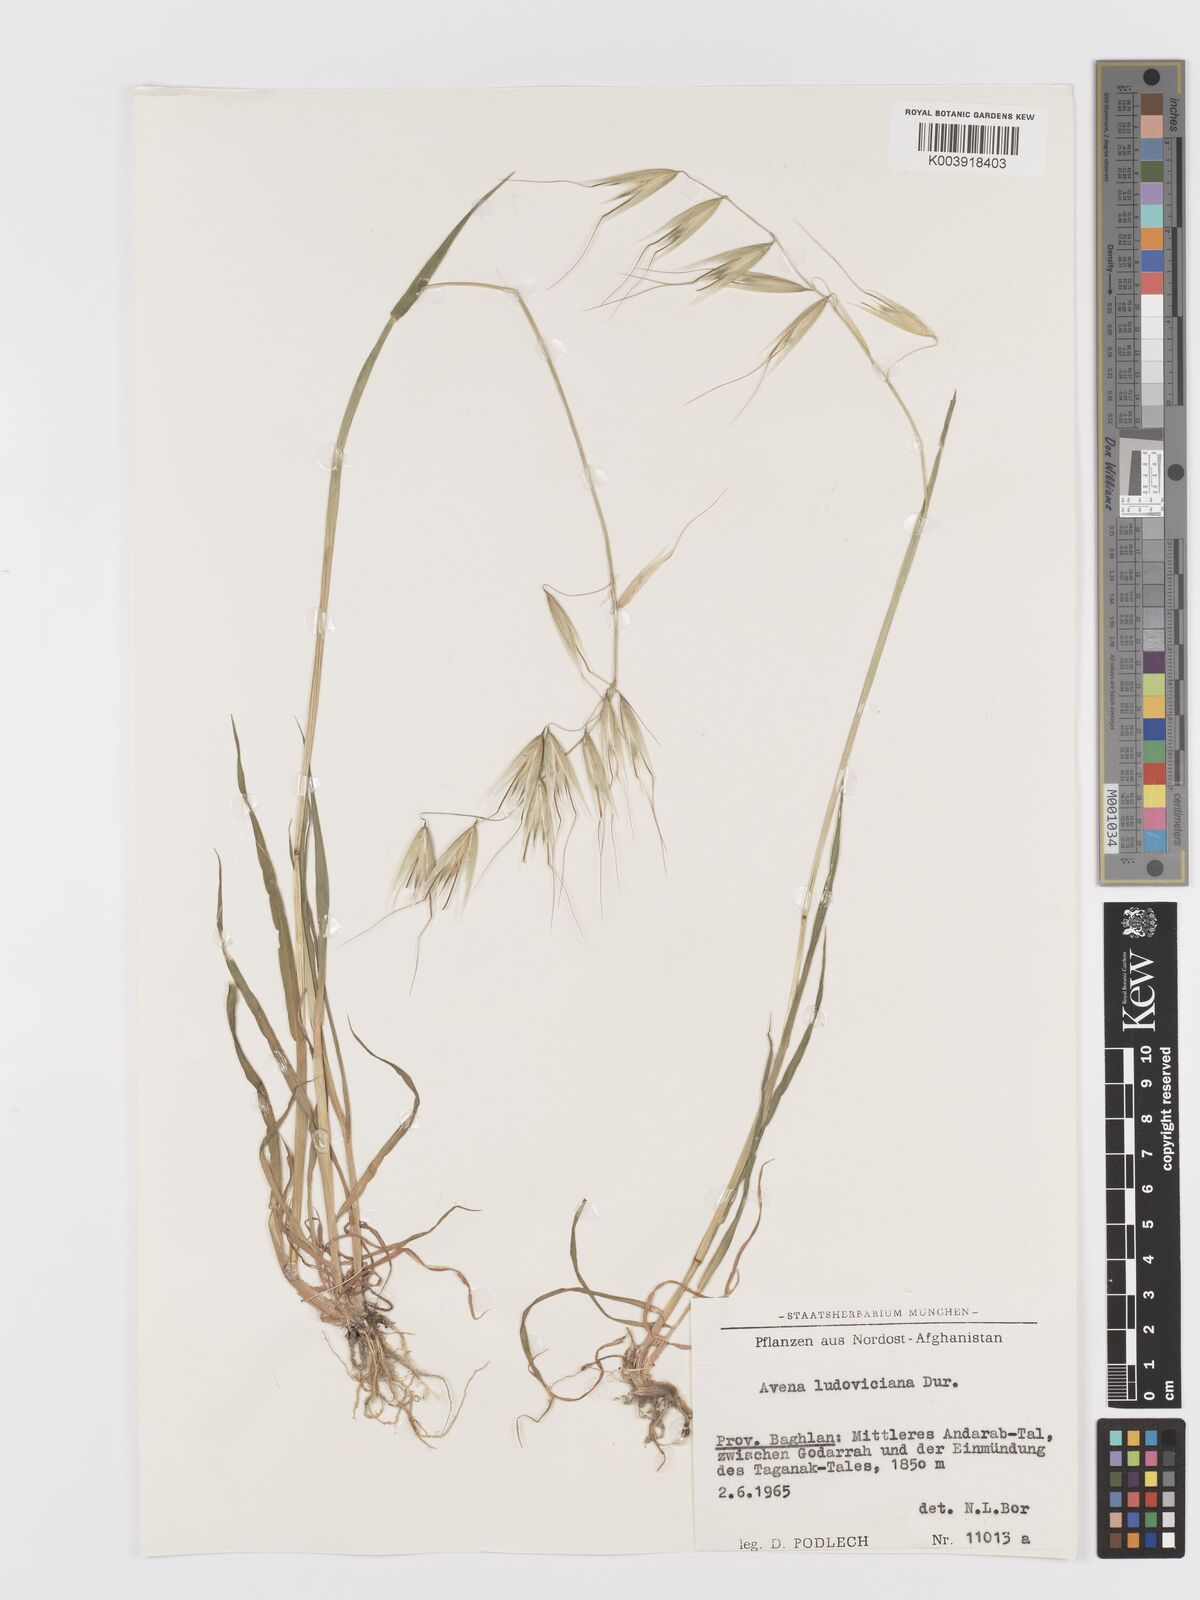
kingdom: Plantae
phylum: Tracheophyta
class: Liliopsida
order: Poales
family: Poaceae
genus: Avena
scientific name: Avena sterilis
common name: Animated oat
